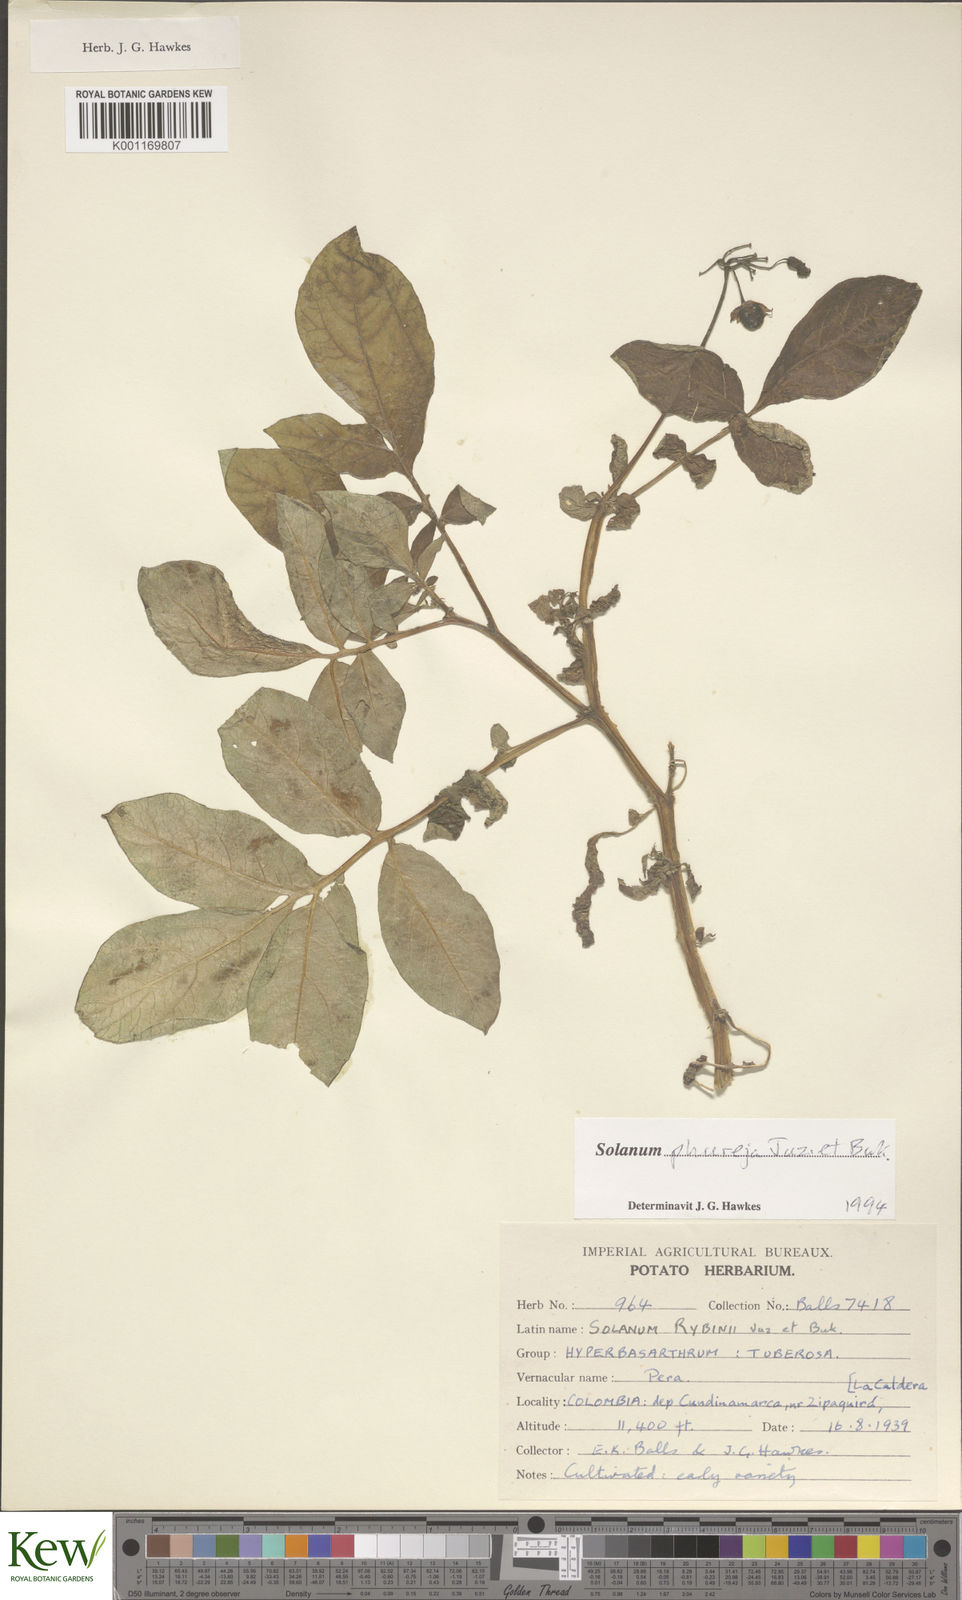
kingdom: Plantae
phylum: Tracheophyta
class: Magnoliopsida
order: Solanales
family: Solanaceae
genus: Solanum
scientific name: Solanum tuberosum
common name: Potato
